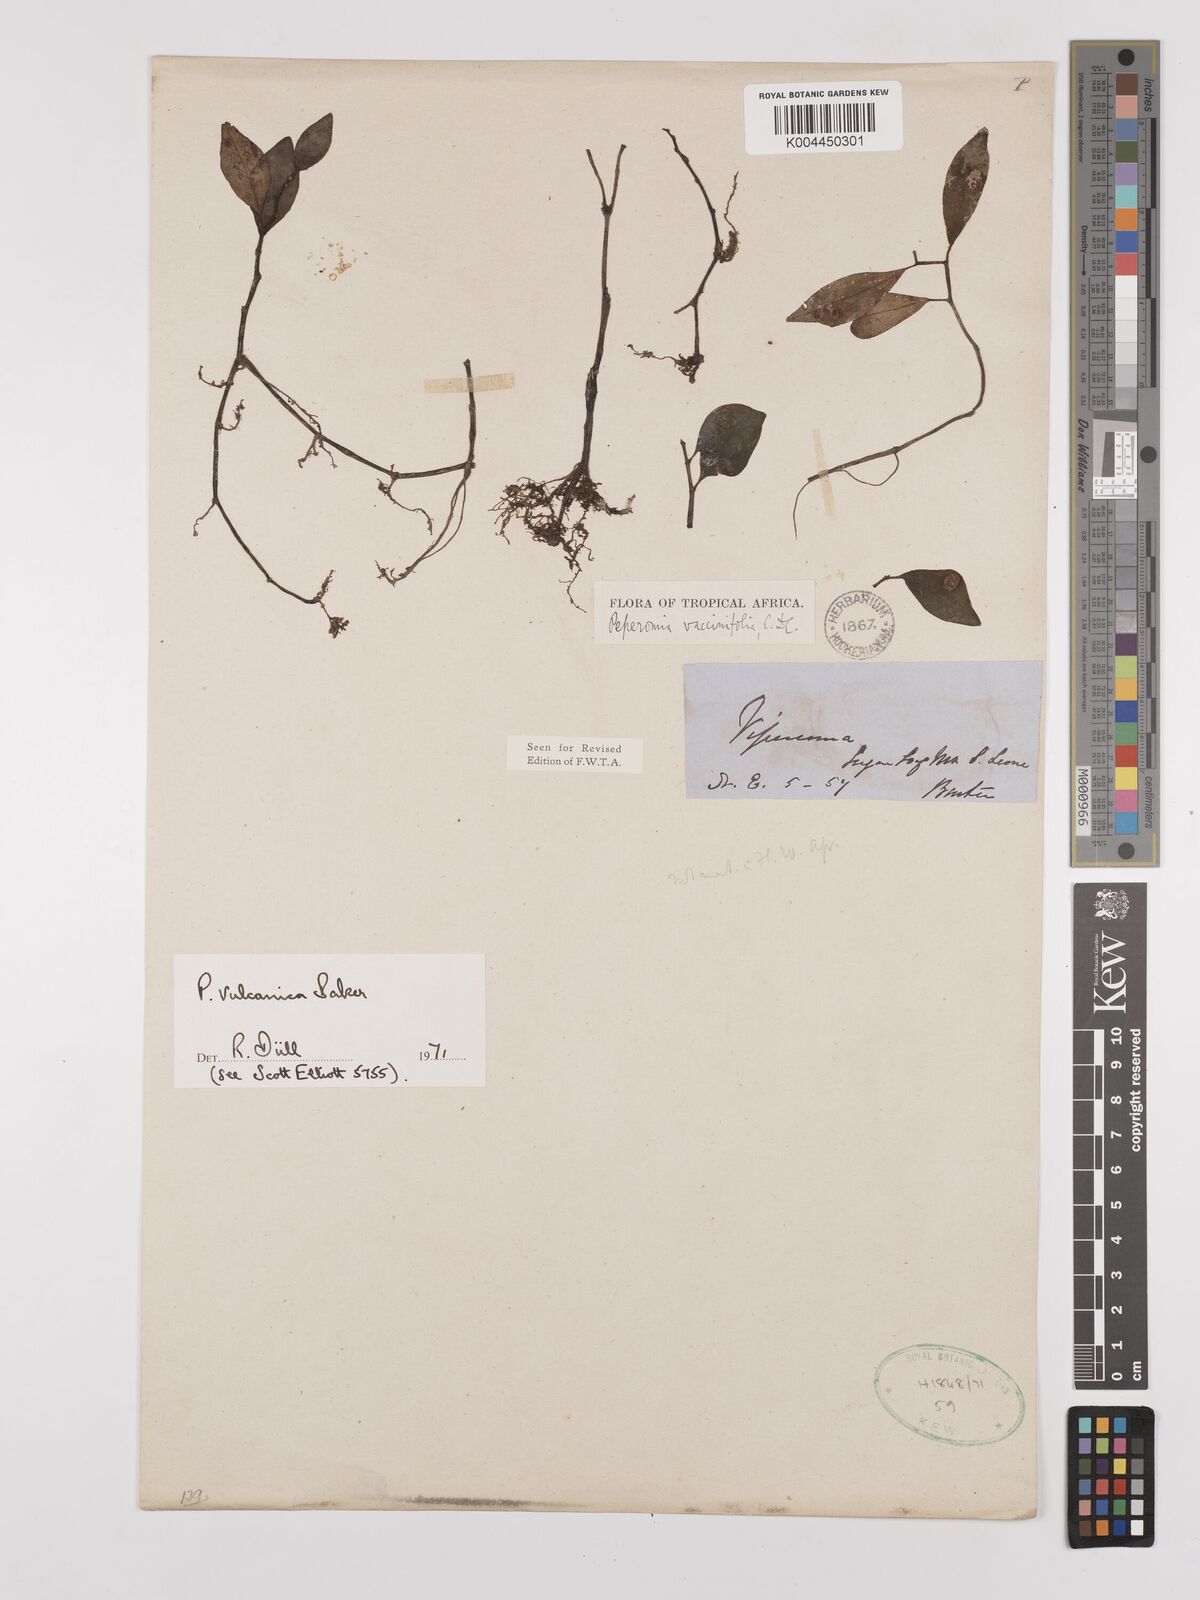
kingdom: Plantae
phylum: Tracheophyta
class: Magnoliopsida
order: Piperales
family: Piperaceae
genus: Peperomia
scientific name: Peperomia vulcanica
